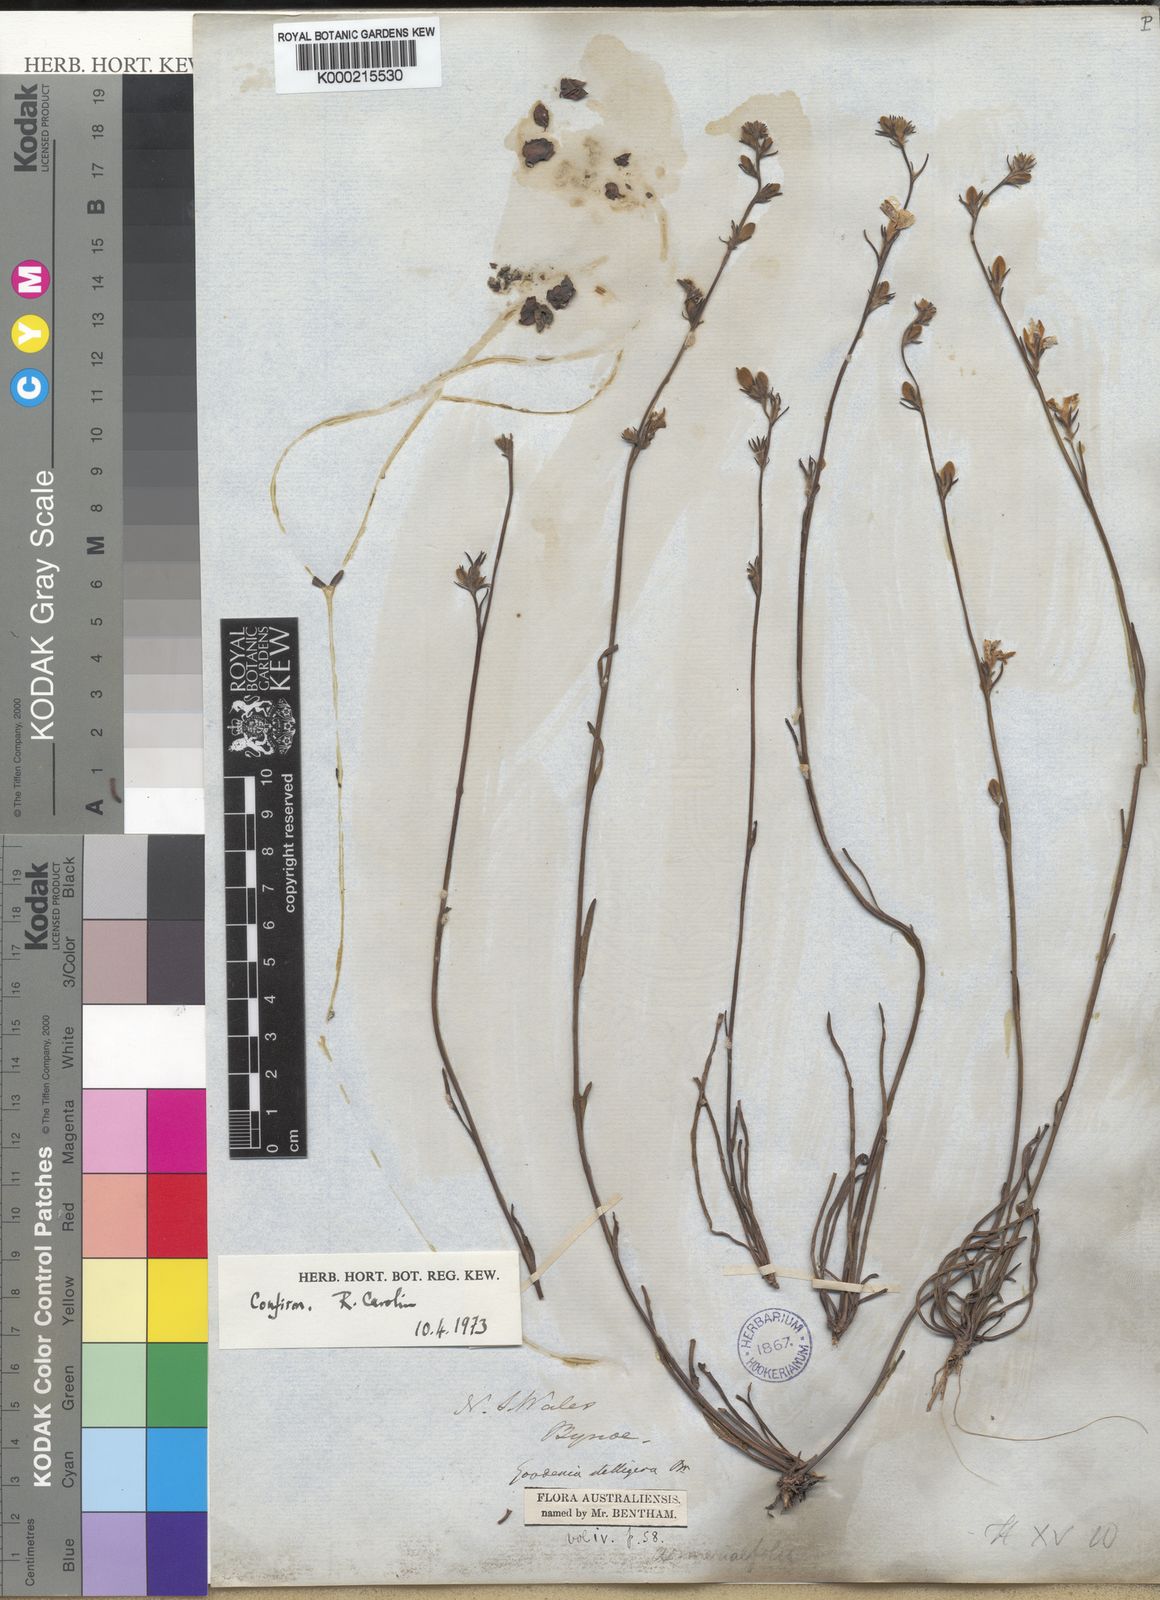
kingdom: Plantae
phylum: Tracheophyta
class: Magnoliopsida
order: Asterales
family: Goodeniaceae
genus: Goodenia
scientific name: Goodenia stelligera
